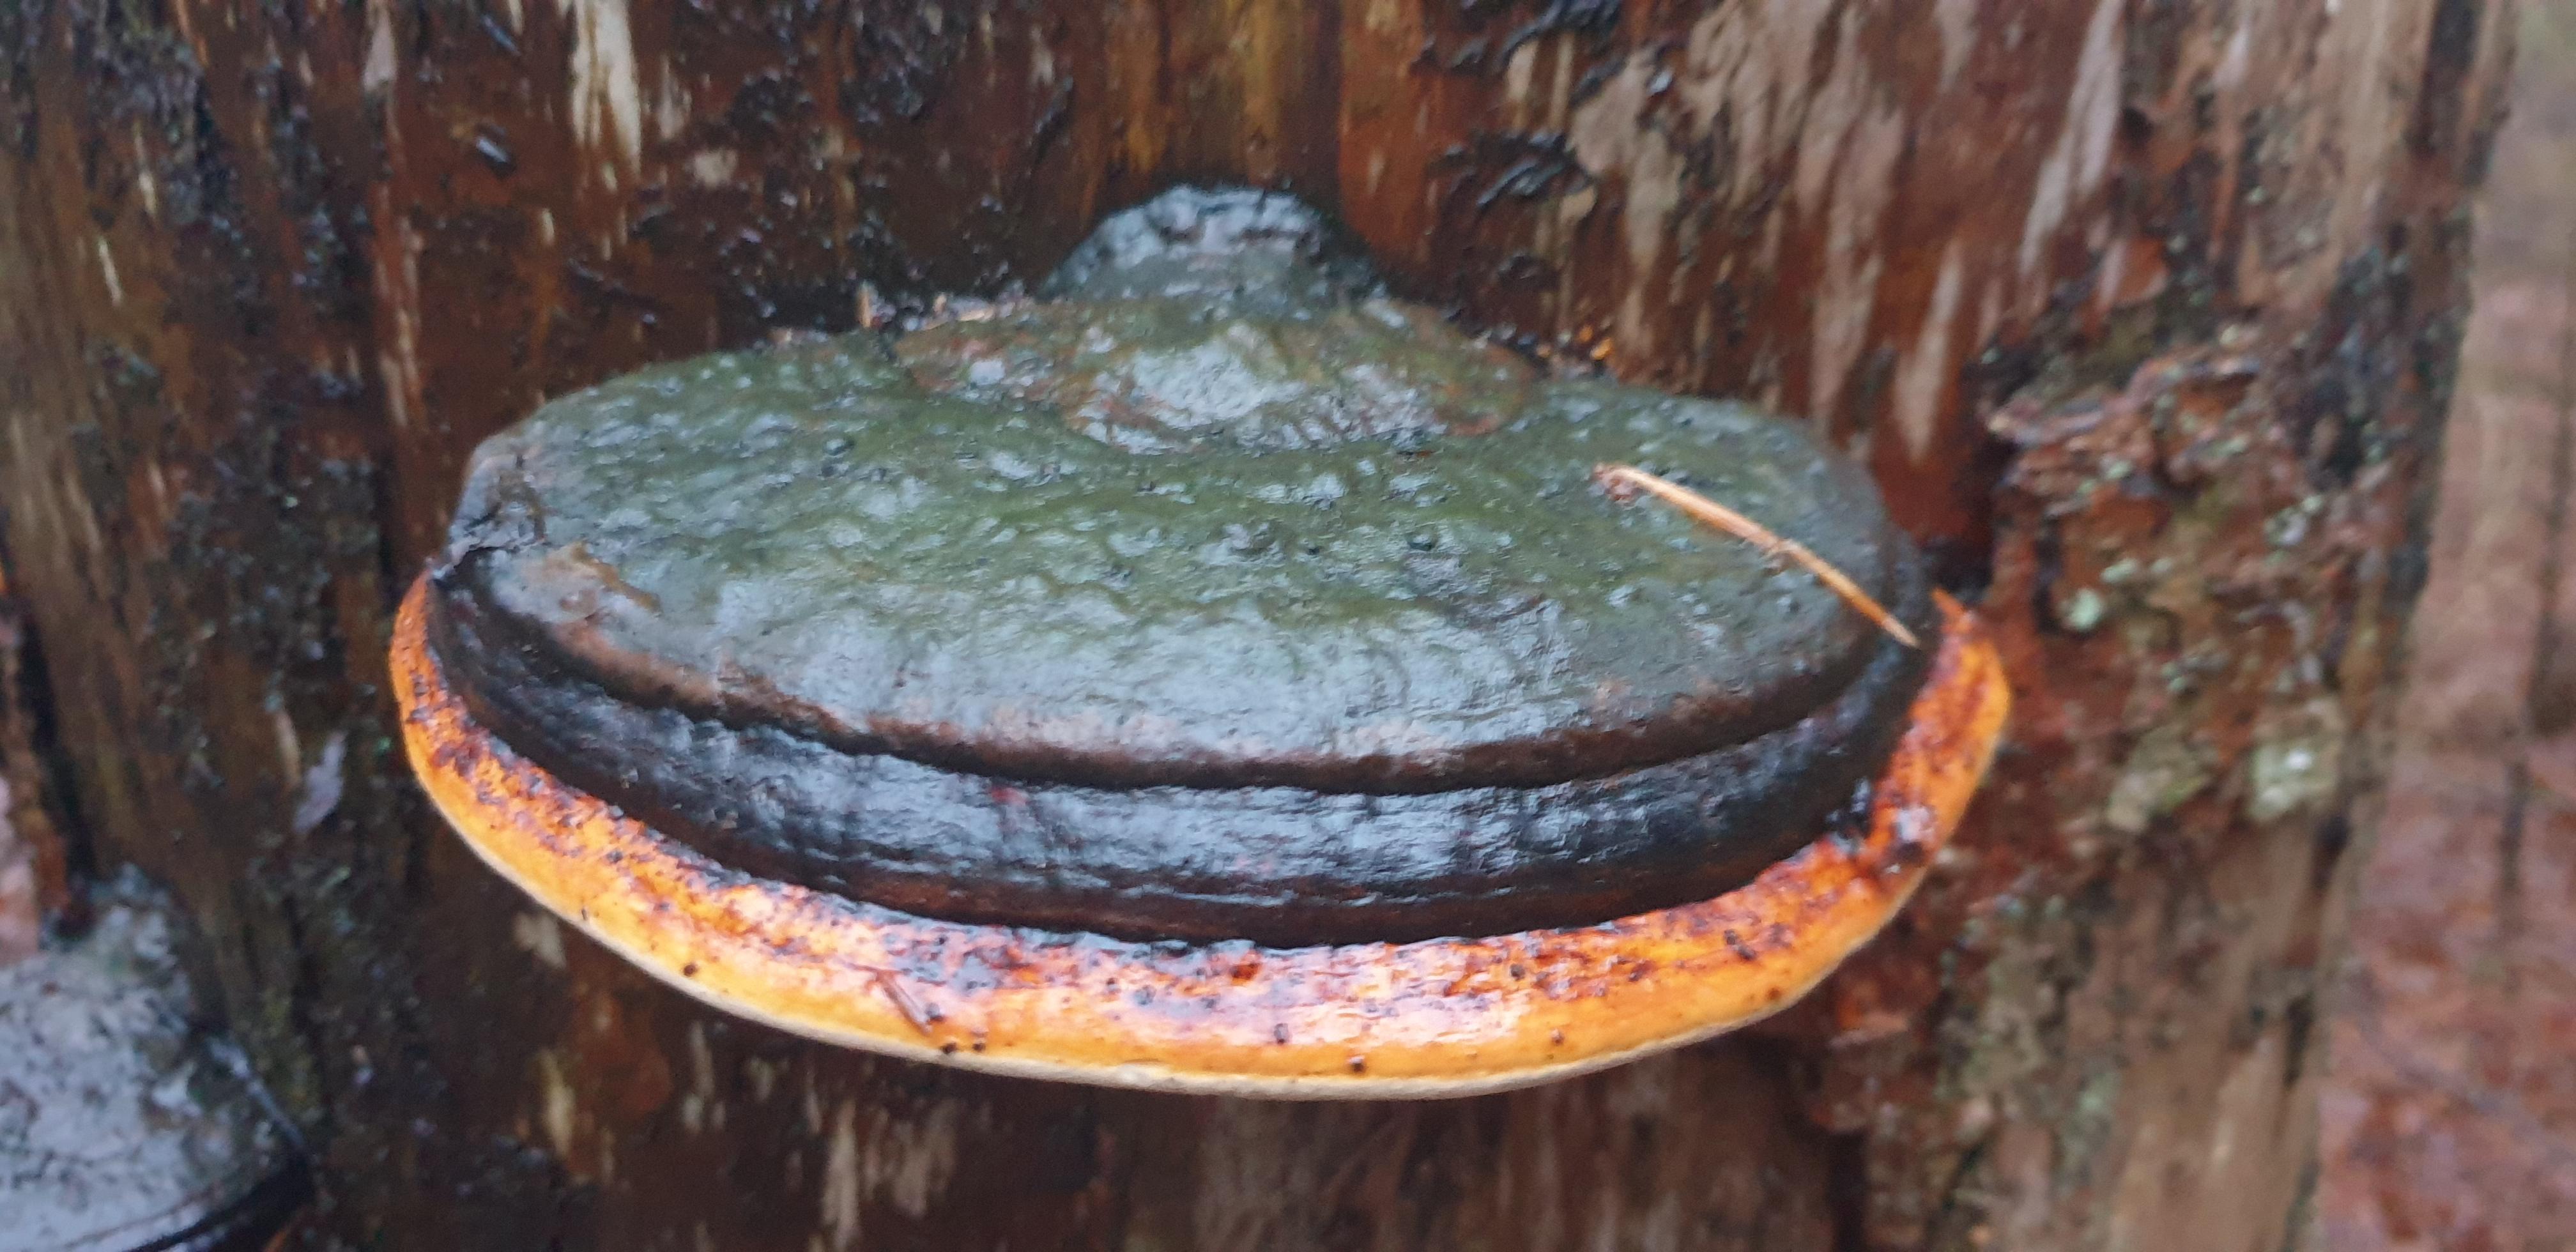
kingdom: Fungi
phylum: Basidiomycota
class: Agaricomycetes
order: Polyporales
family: Fomitopsidaceae
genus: Fomitopsis
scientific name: Fomitopsis pinicola
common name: randbæltet hovporesvamp
